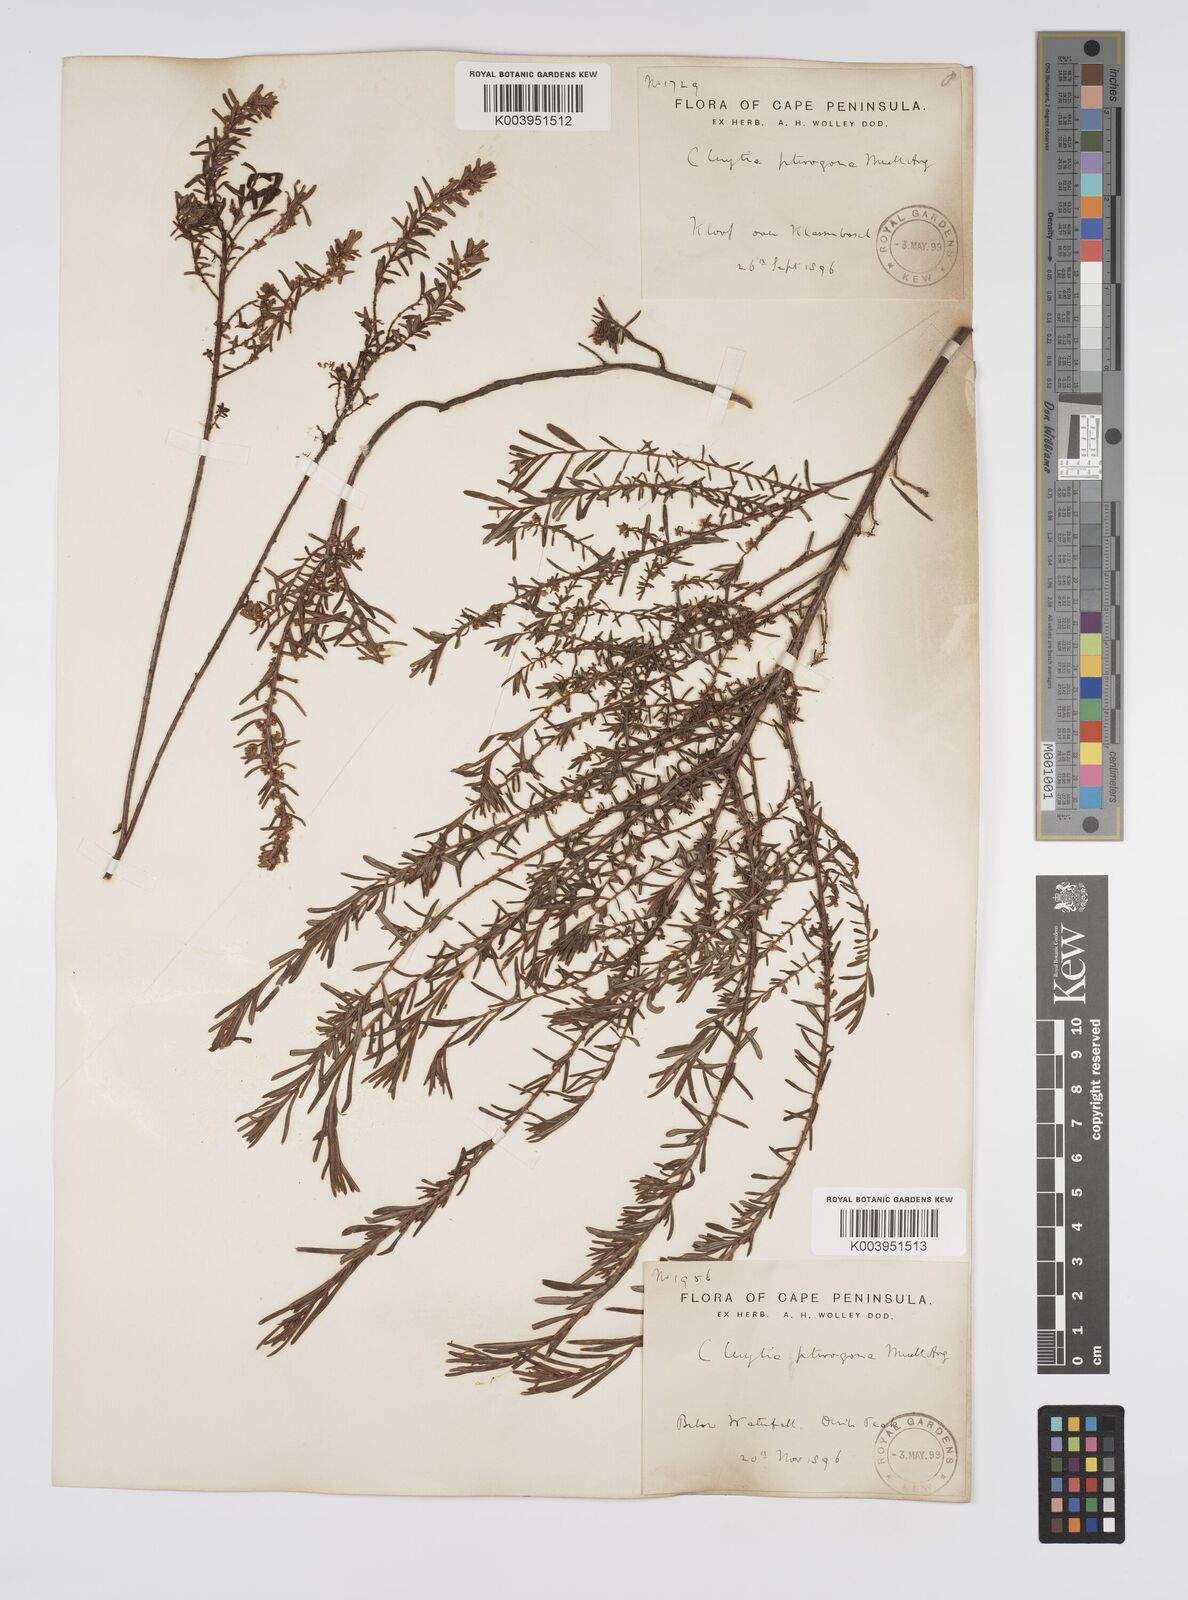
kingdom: Plantae
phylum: Tracheophyta
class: Magnoliopsida
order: Malpighiales
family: Peraceae
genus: Clutia
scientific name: Clutia pterogona
